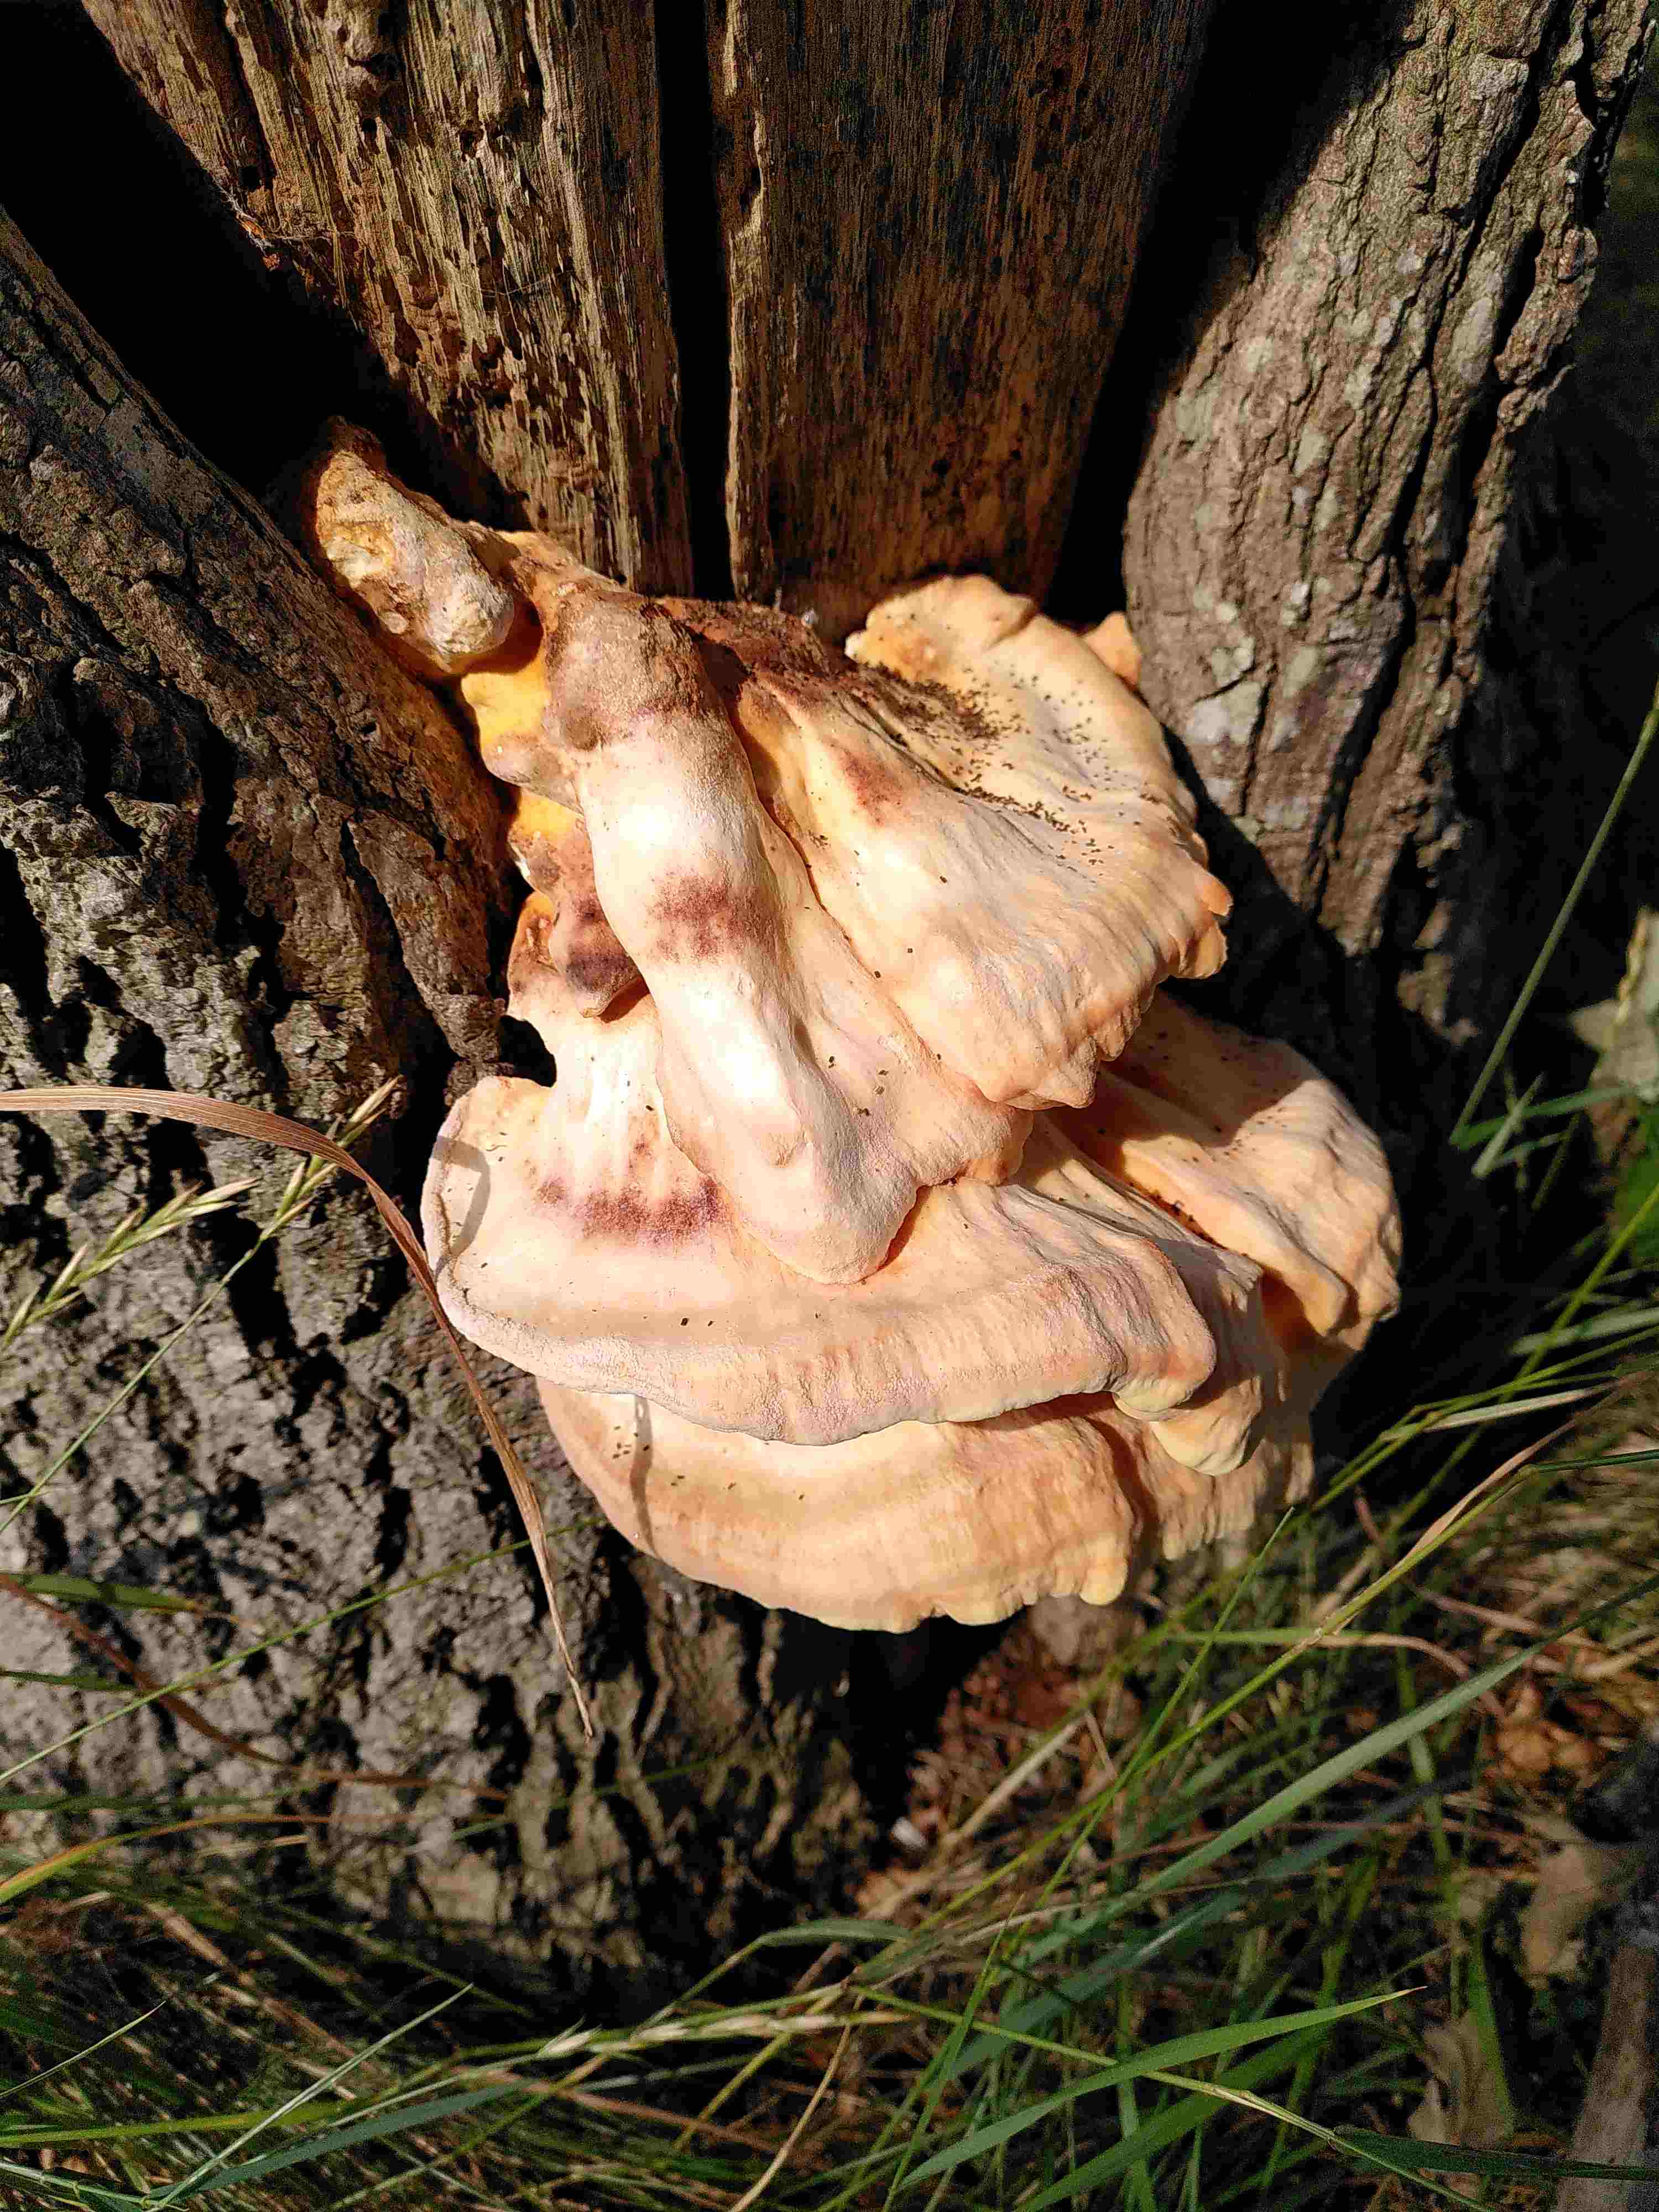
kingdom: Fungi
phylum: Basidiomycota
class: Agaricomycetes
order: Polyporales
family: Laetiporaceae
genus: Laetiporus
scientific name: Laetiporus sulphureus
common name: svovlporesvamp
